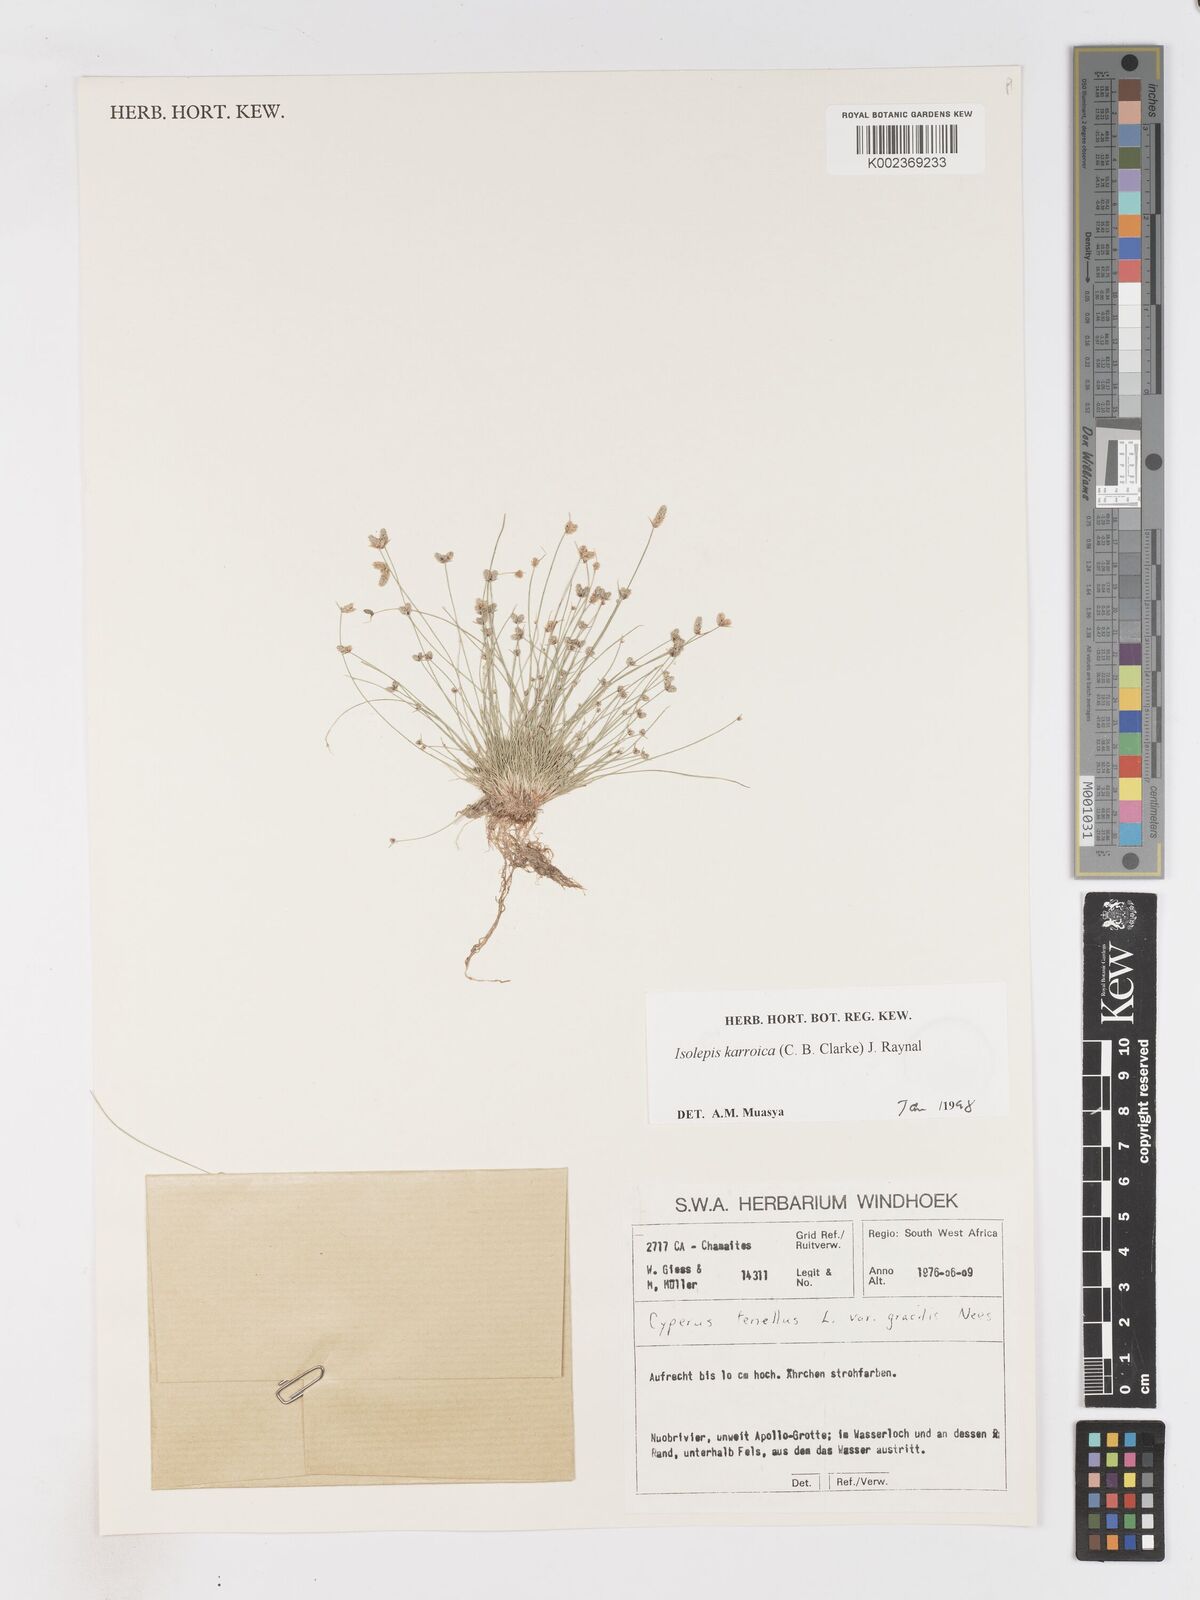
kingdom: Plantae
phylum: Tracheophyta
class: Liliopsida
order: Poales
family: Cyperaceae
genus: Isolepis
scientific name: Isolepis karroica
